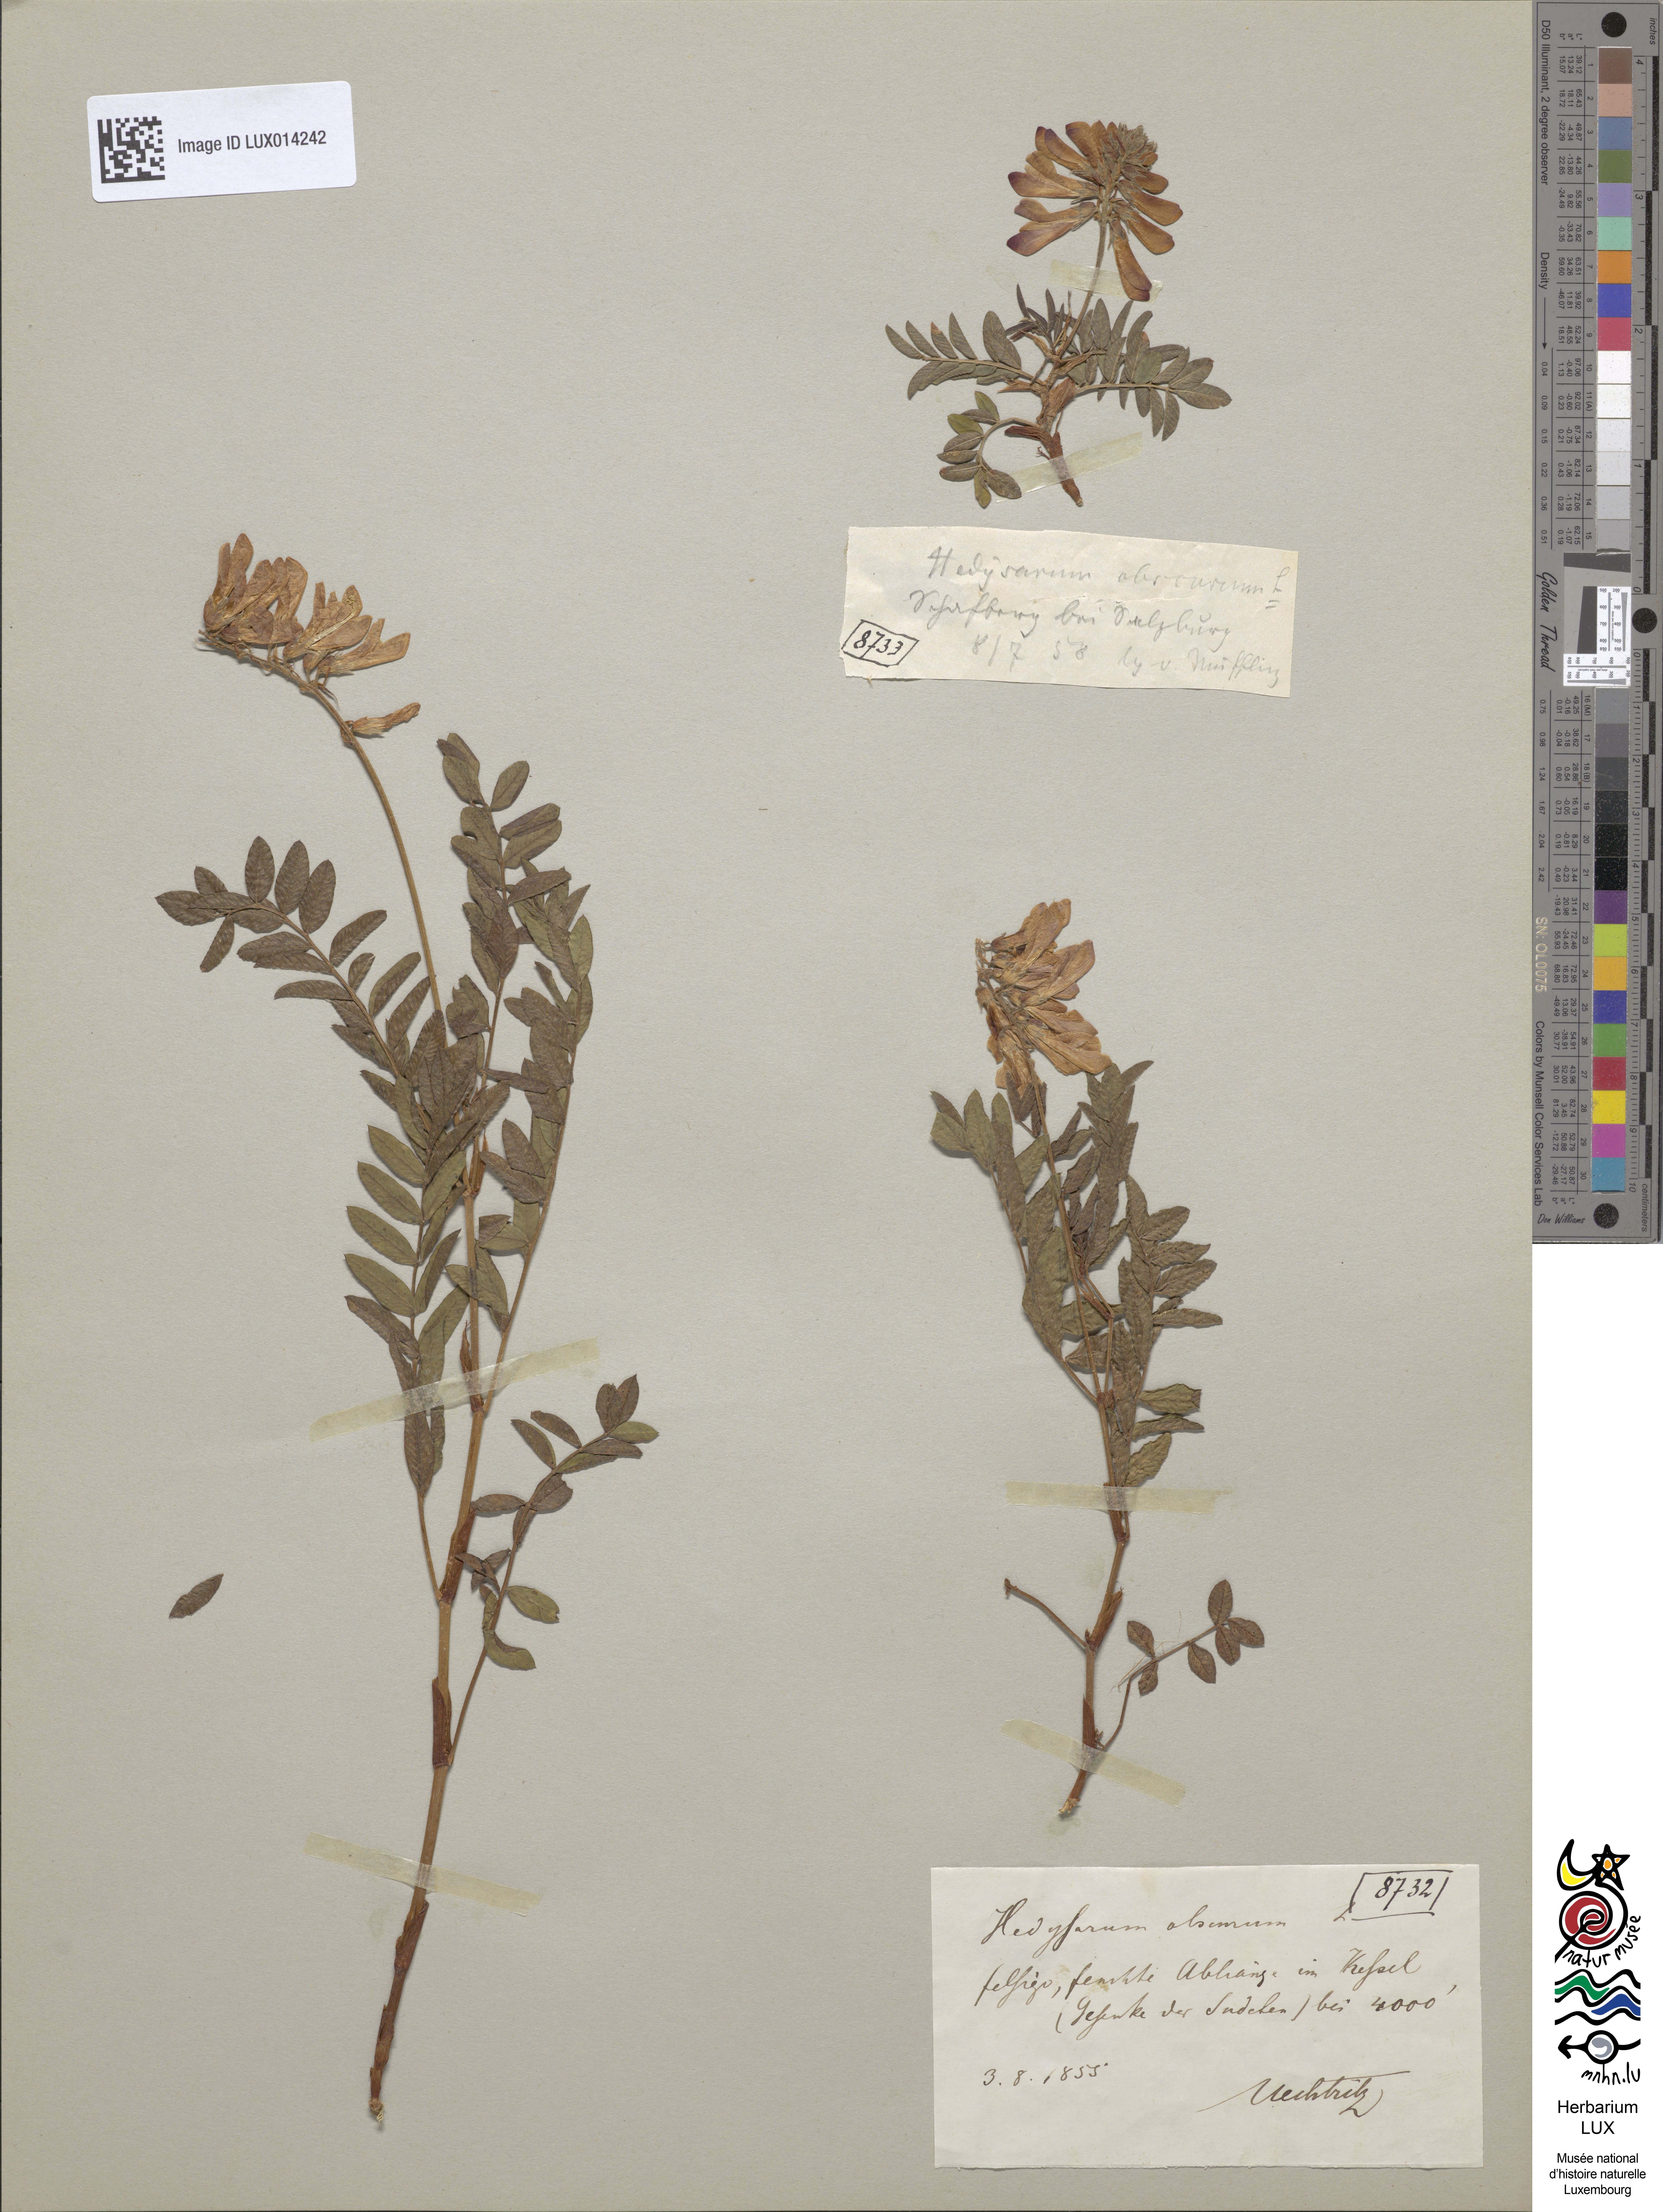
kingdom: Plantae
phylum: Tracheophyta
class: Magnoliopsida
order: Fabales
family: Fabaceae
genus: Hedysarum
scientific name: Hedysarum hedysaroides
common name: Alpine french-honeysuckle
